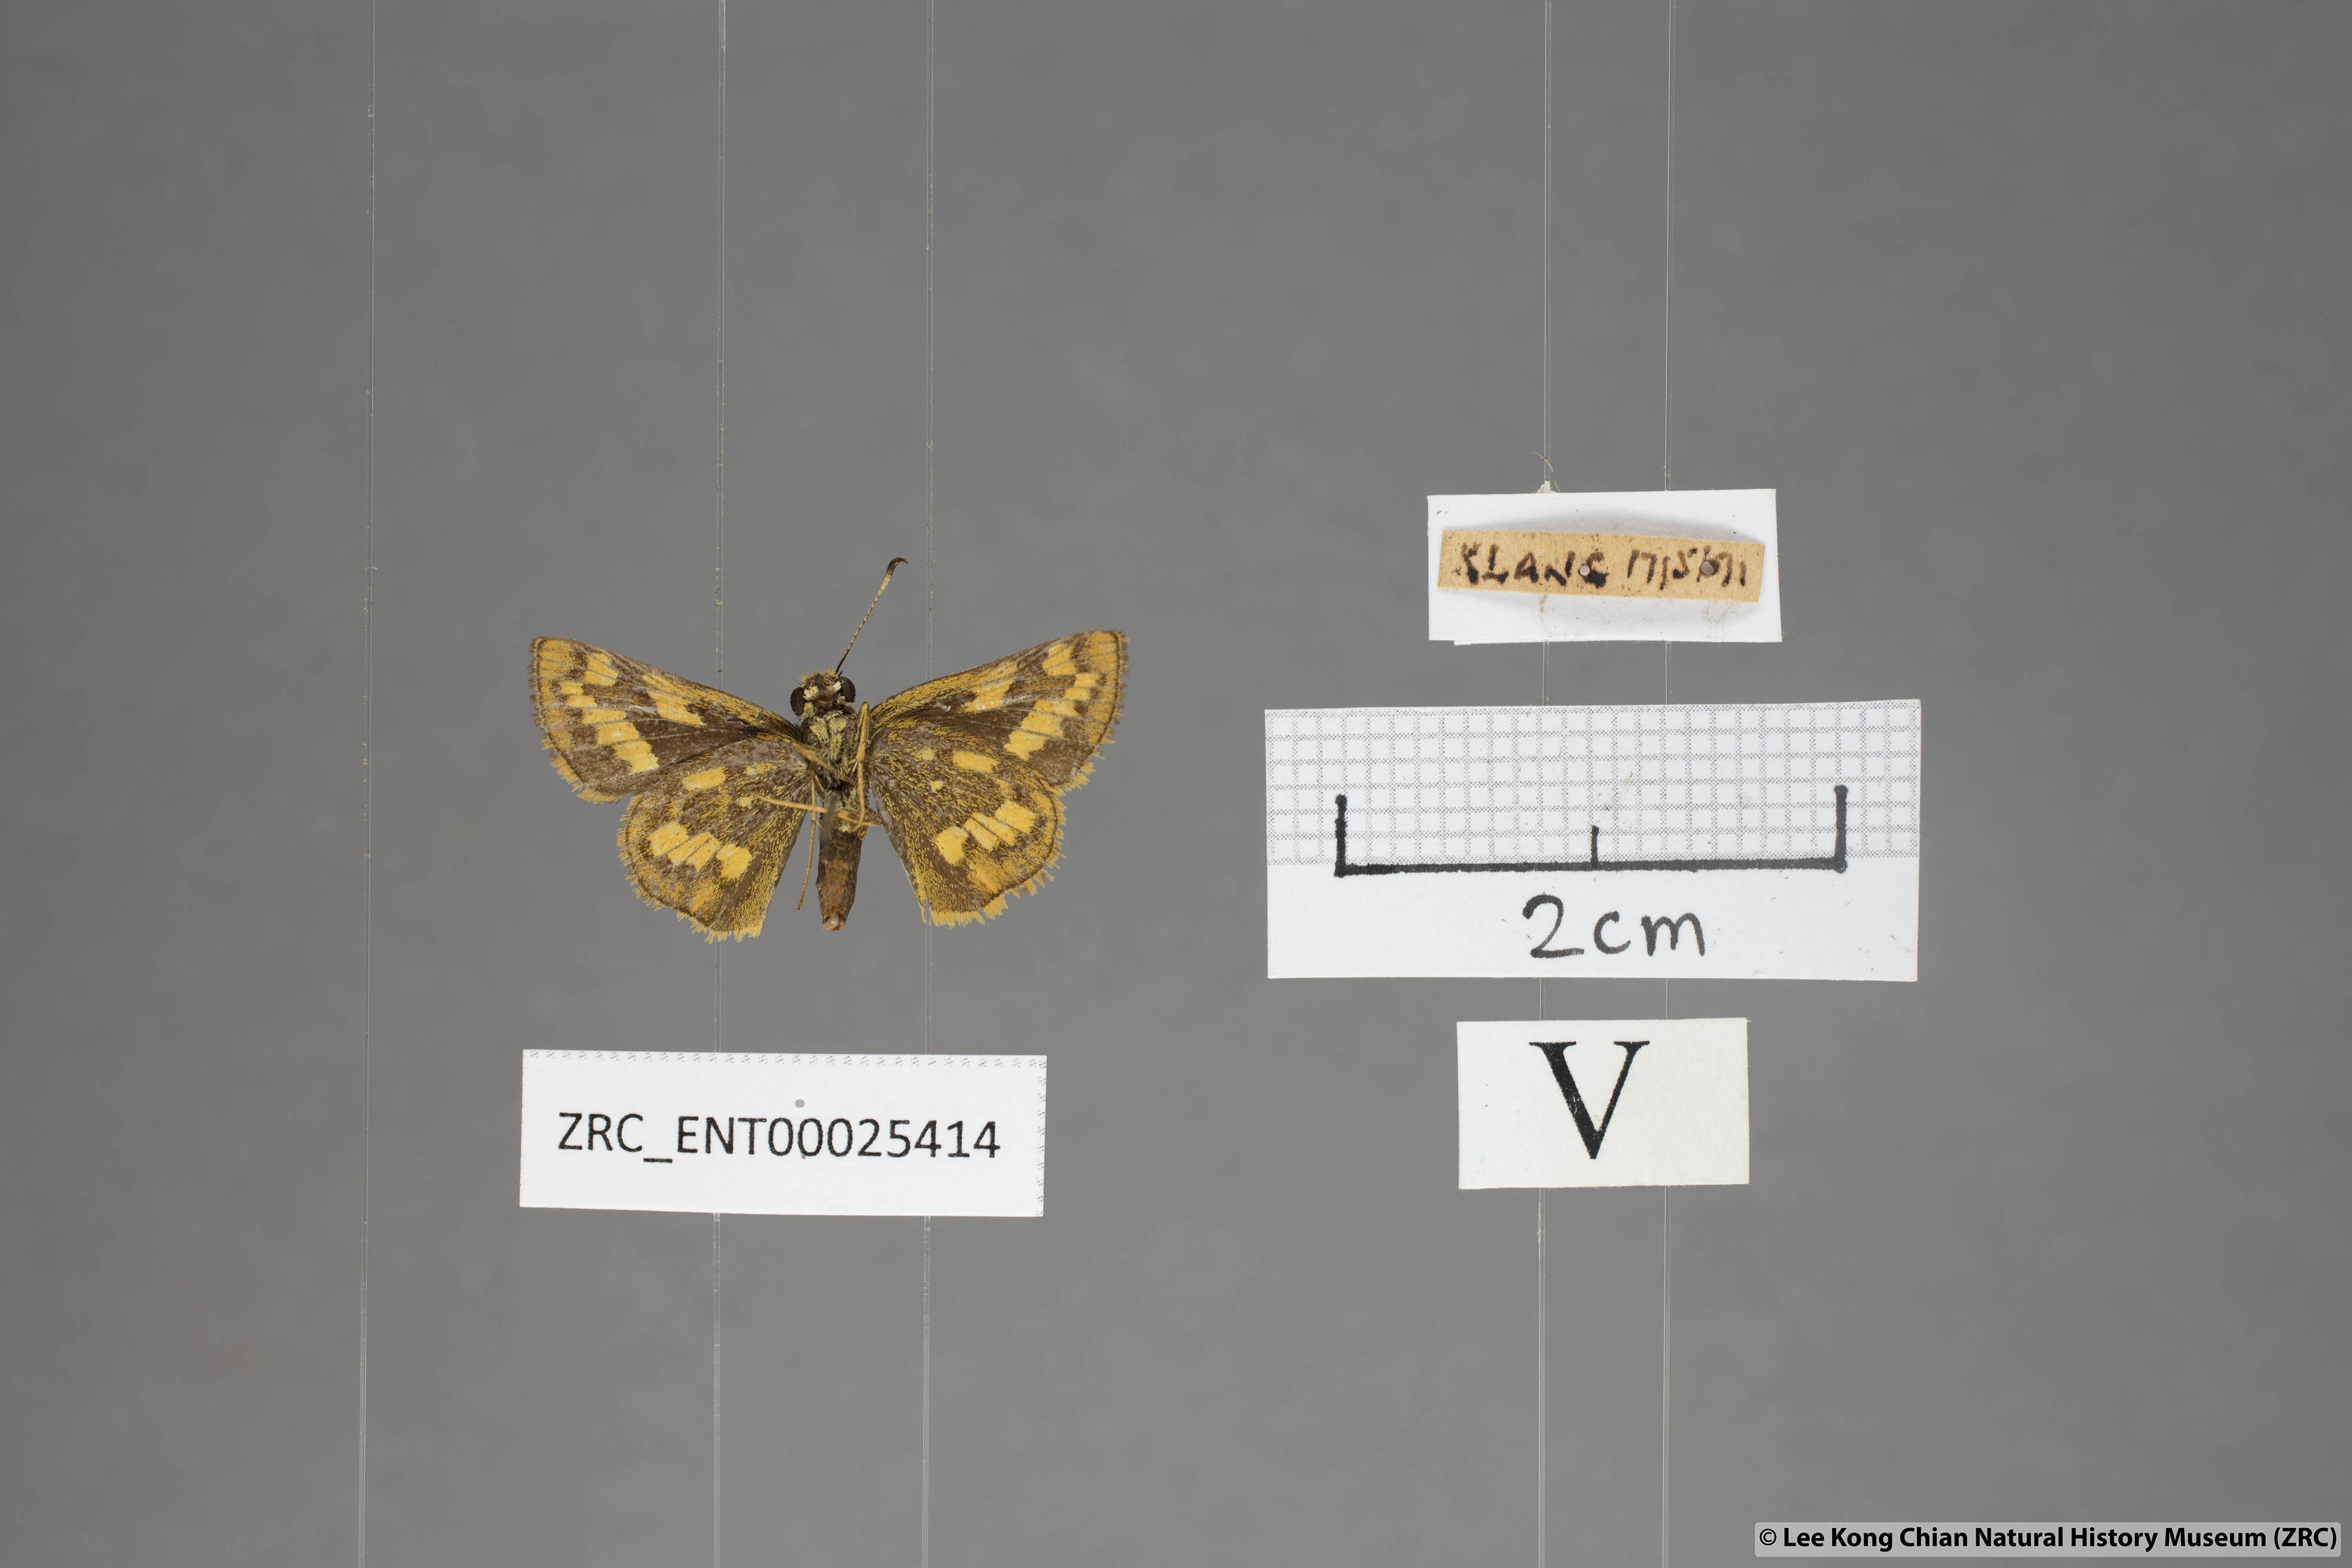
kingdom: Animalia
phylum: Arthropoda
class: Insecta
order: Lepidoptera
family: Hesperiidae
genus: Potanthus
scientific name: Potanthus omaha
